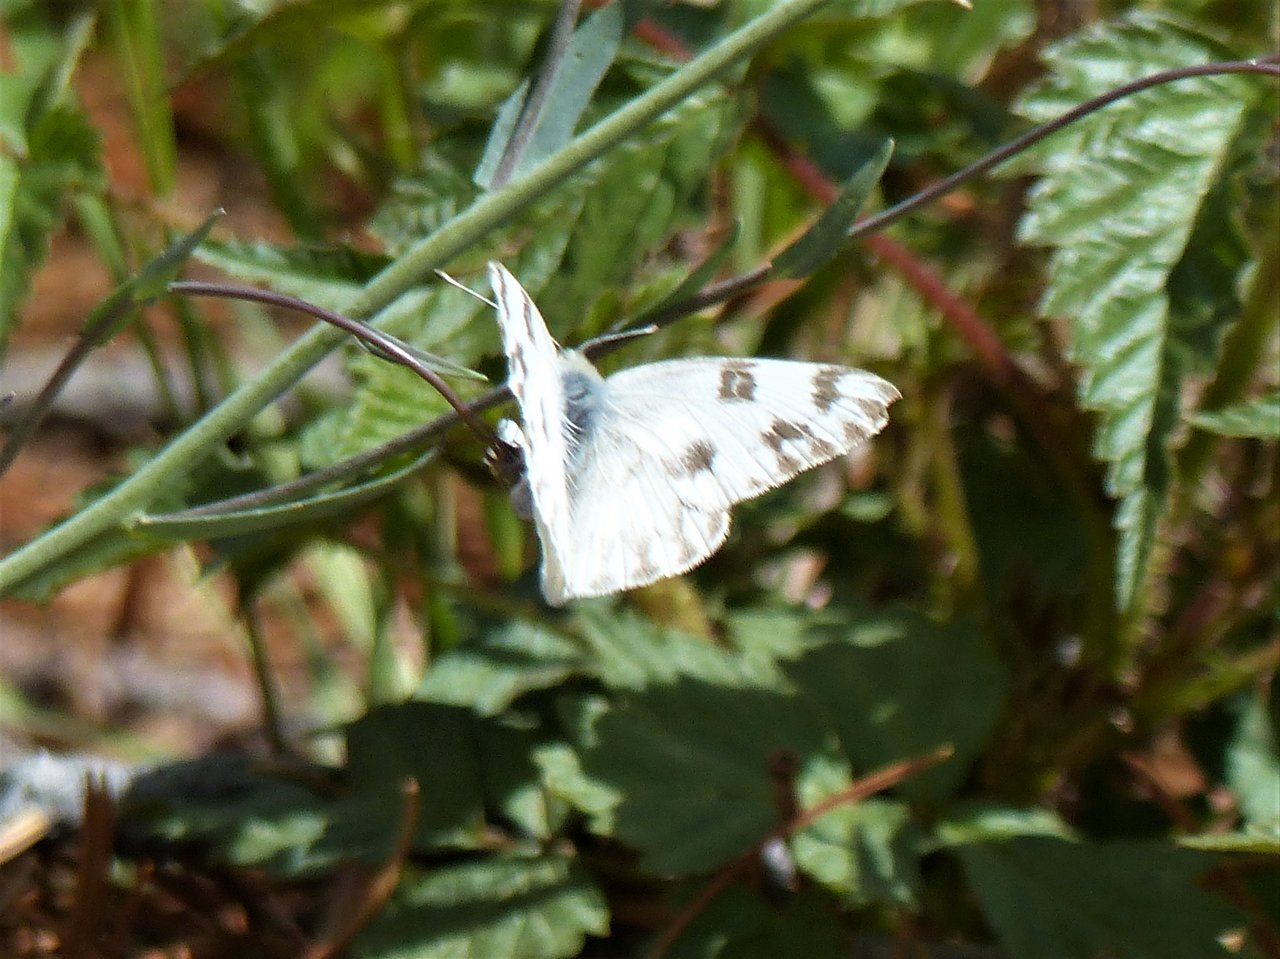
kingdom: Animalia
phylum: Arthropoda
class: Insecta
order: Lepidoptera
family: Pieridae
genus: Pontia
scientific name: Pontia occidentalis
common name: Western White
